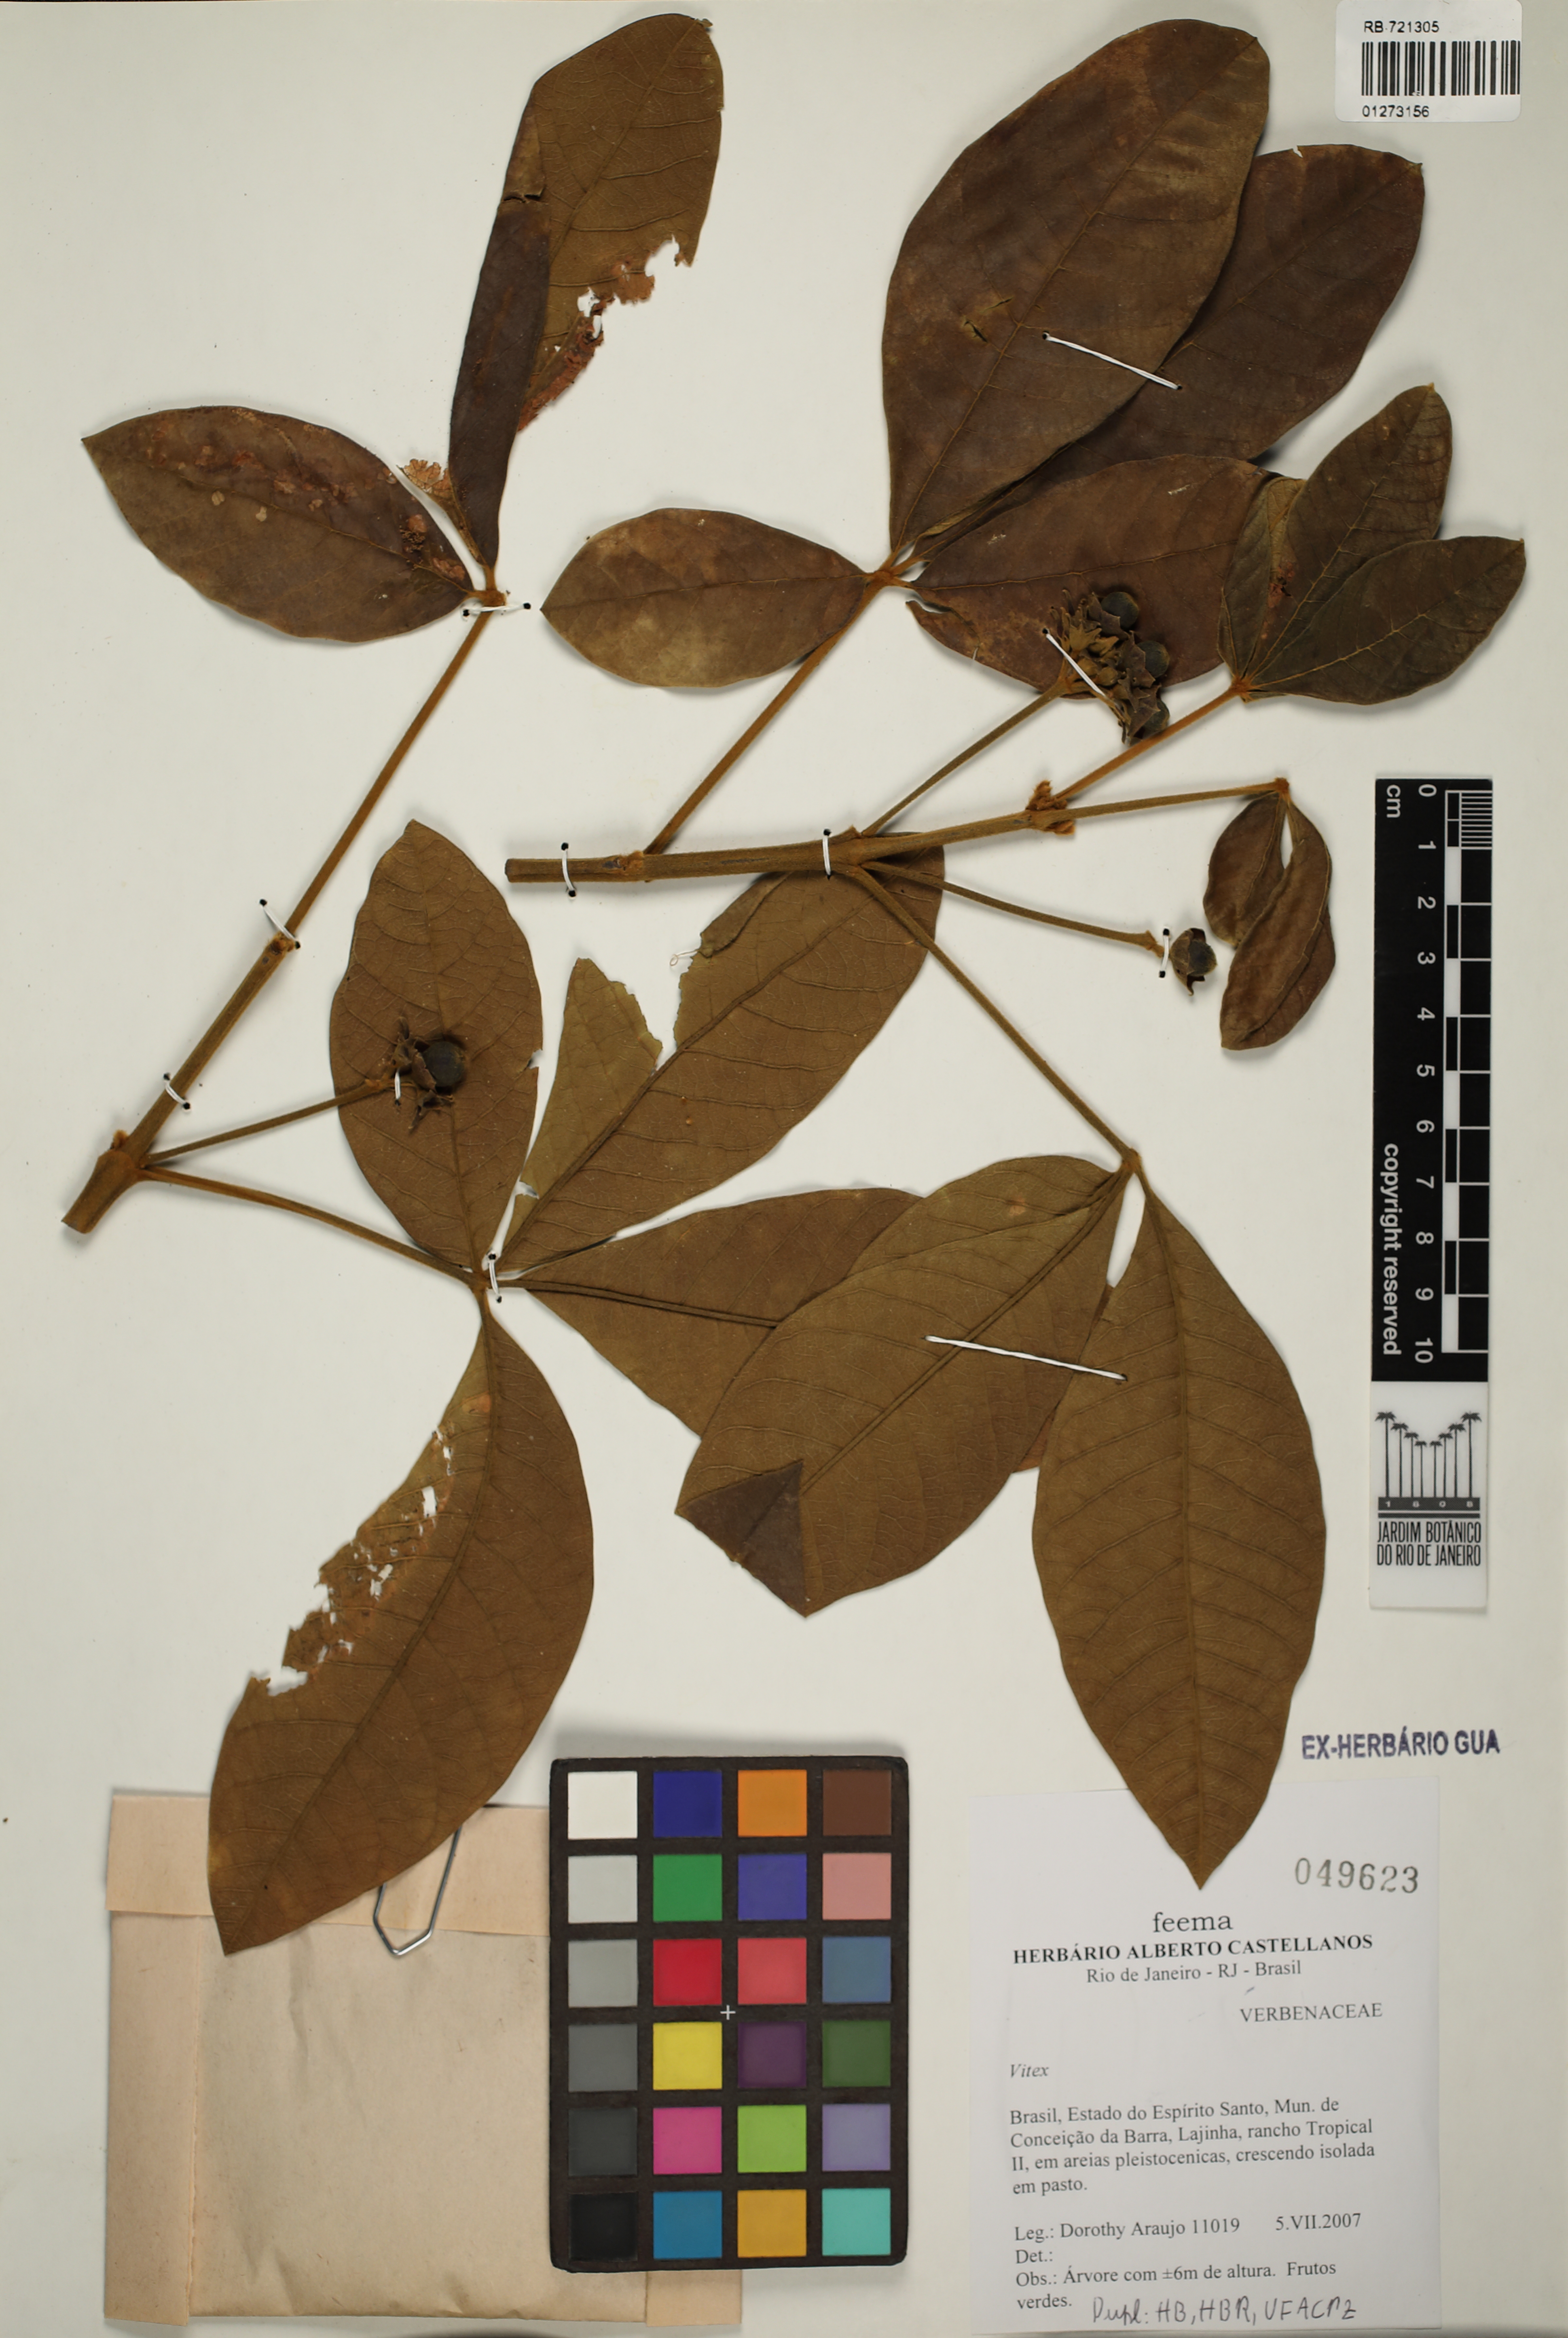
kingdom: Plantae
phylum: Tracheophyta
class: Magnoliopsida
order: Lamiales
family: Lamiaceae
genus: Vitex
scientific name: Vitex
